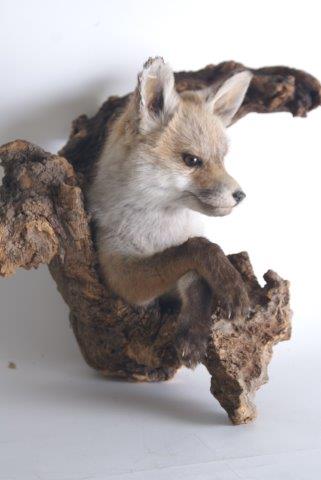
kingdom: Animalia
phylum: Chordata
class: Mammalia
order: Carnivora
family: Canidae
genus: Vulpes
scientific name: Vulpes vulpes
